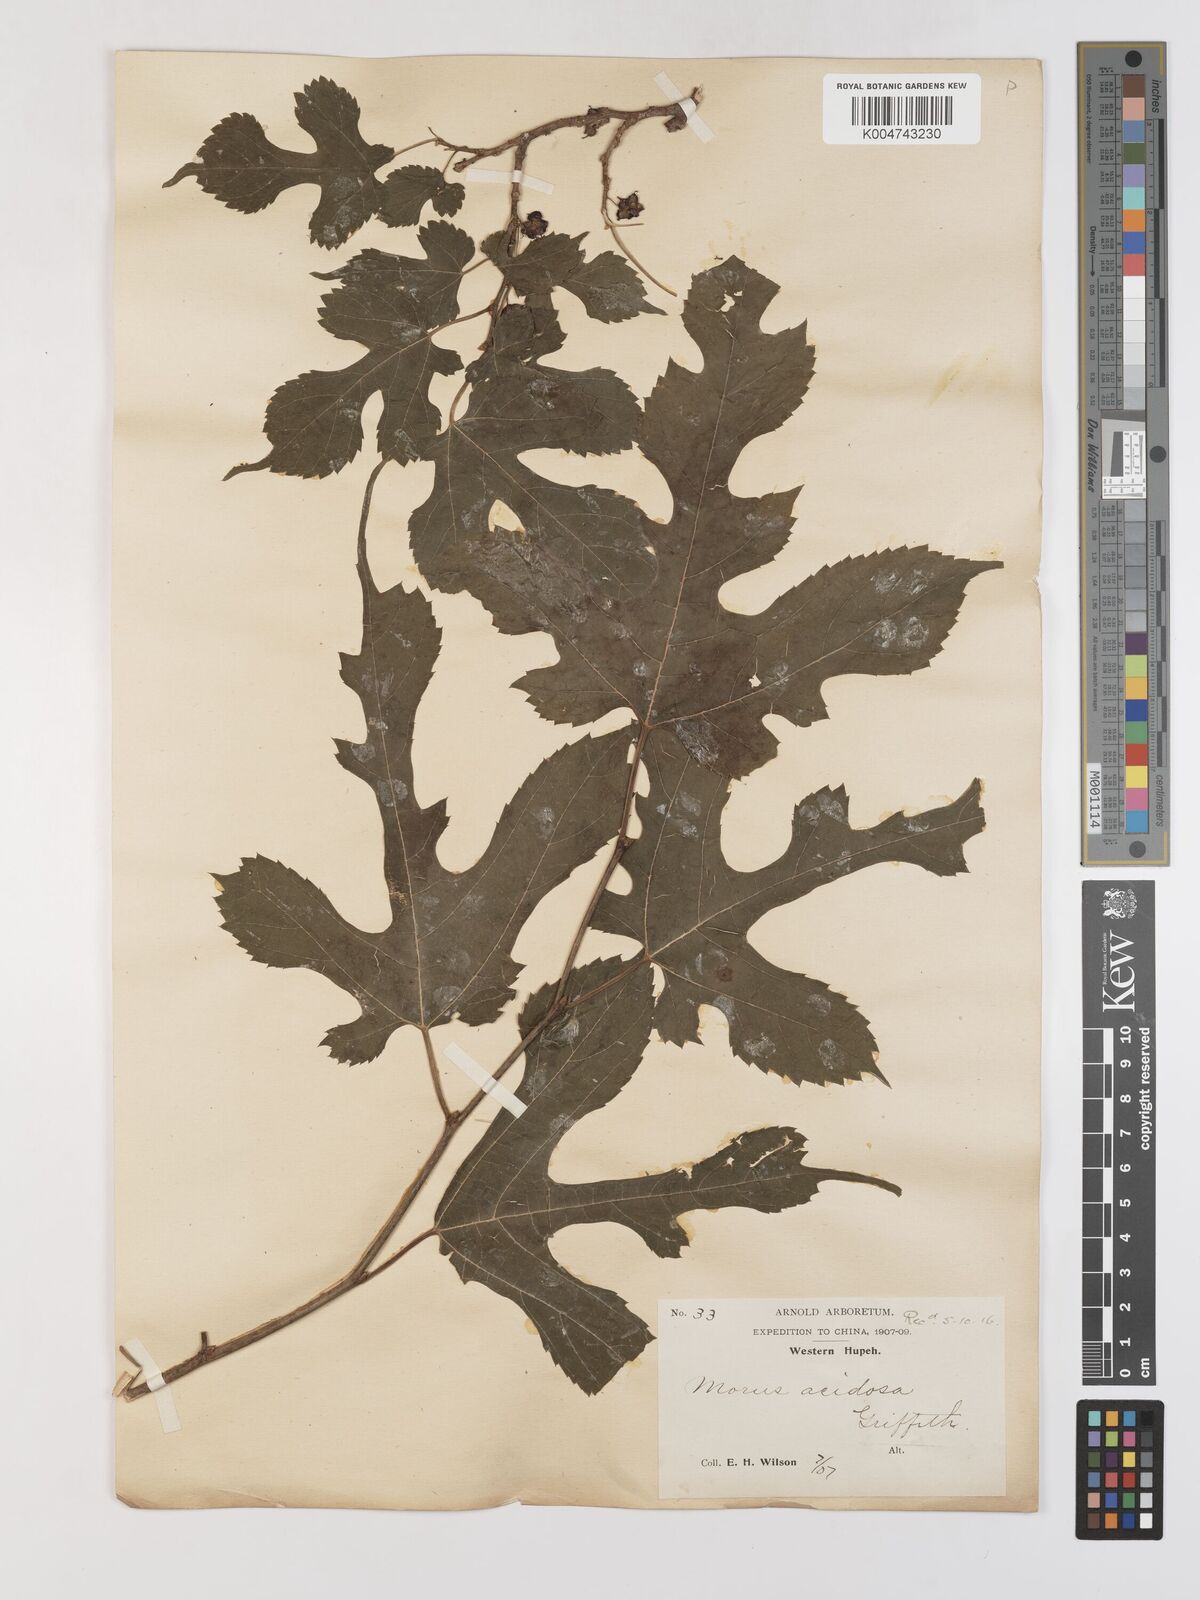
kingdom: Plantae
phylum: Tracheophyta
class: Magnoliopsida
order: Rosales
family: Moraceae
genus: Morus
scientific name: Morus indica
